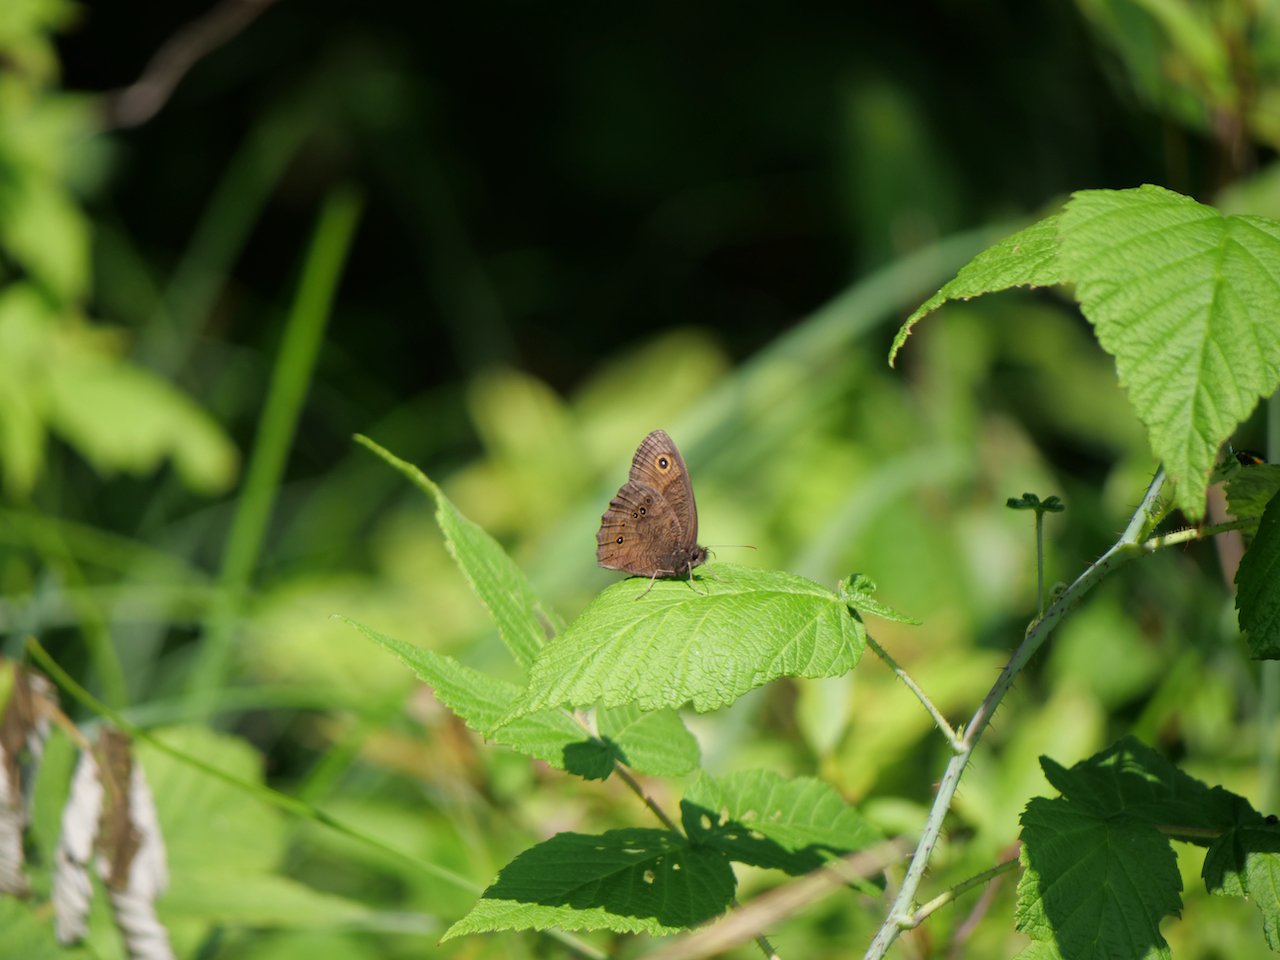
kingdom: Animalia
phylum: Arthropoda
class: Insecta
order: Lepidoptera
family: Nymphalidae
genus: Cercyonis
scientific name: Cercyonis pegala
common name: Common Wood-Nymph
